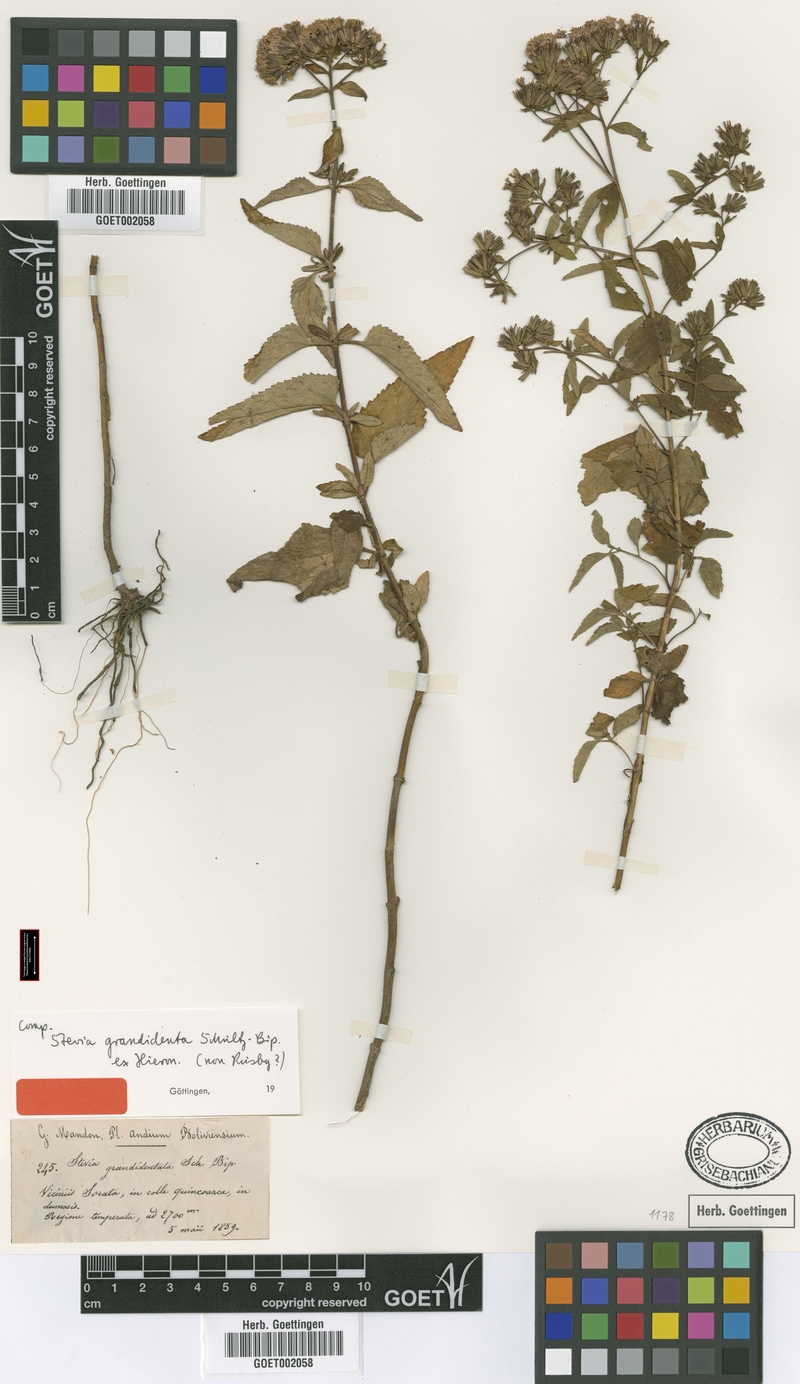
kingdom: Plantae
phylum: Tracheophyta
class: Magnoliopsida
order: Asterales
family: Asteraceae
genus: Stevia
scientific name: Stevia soratensis
